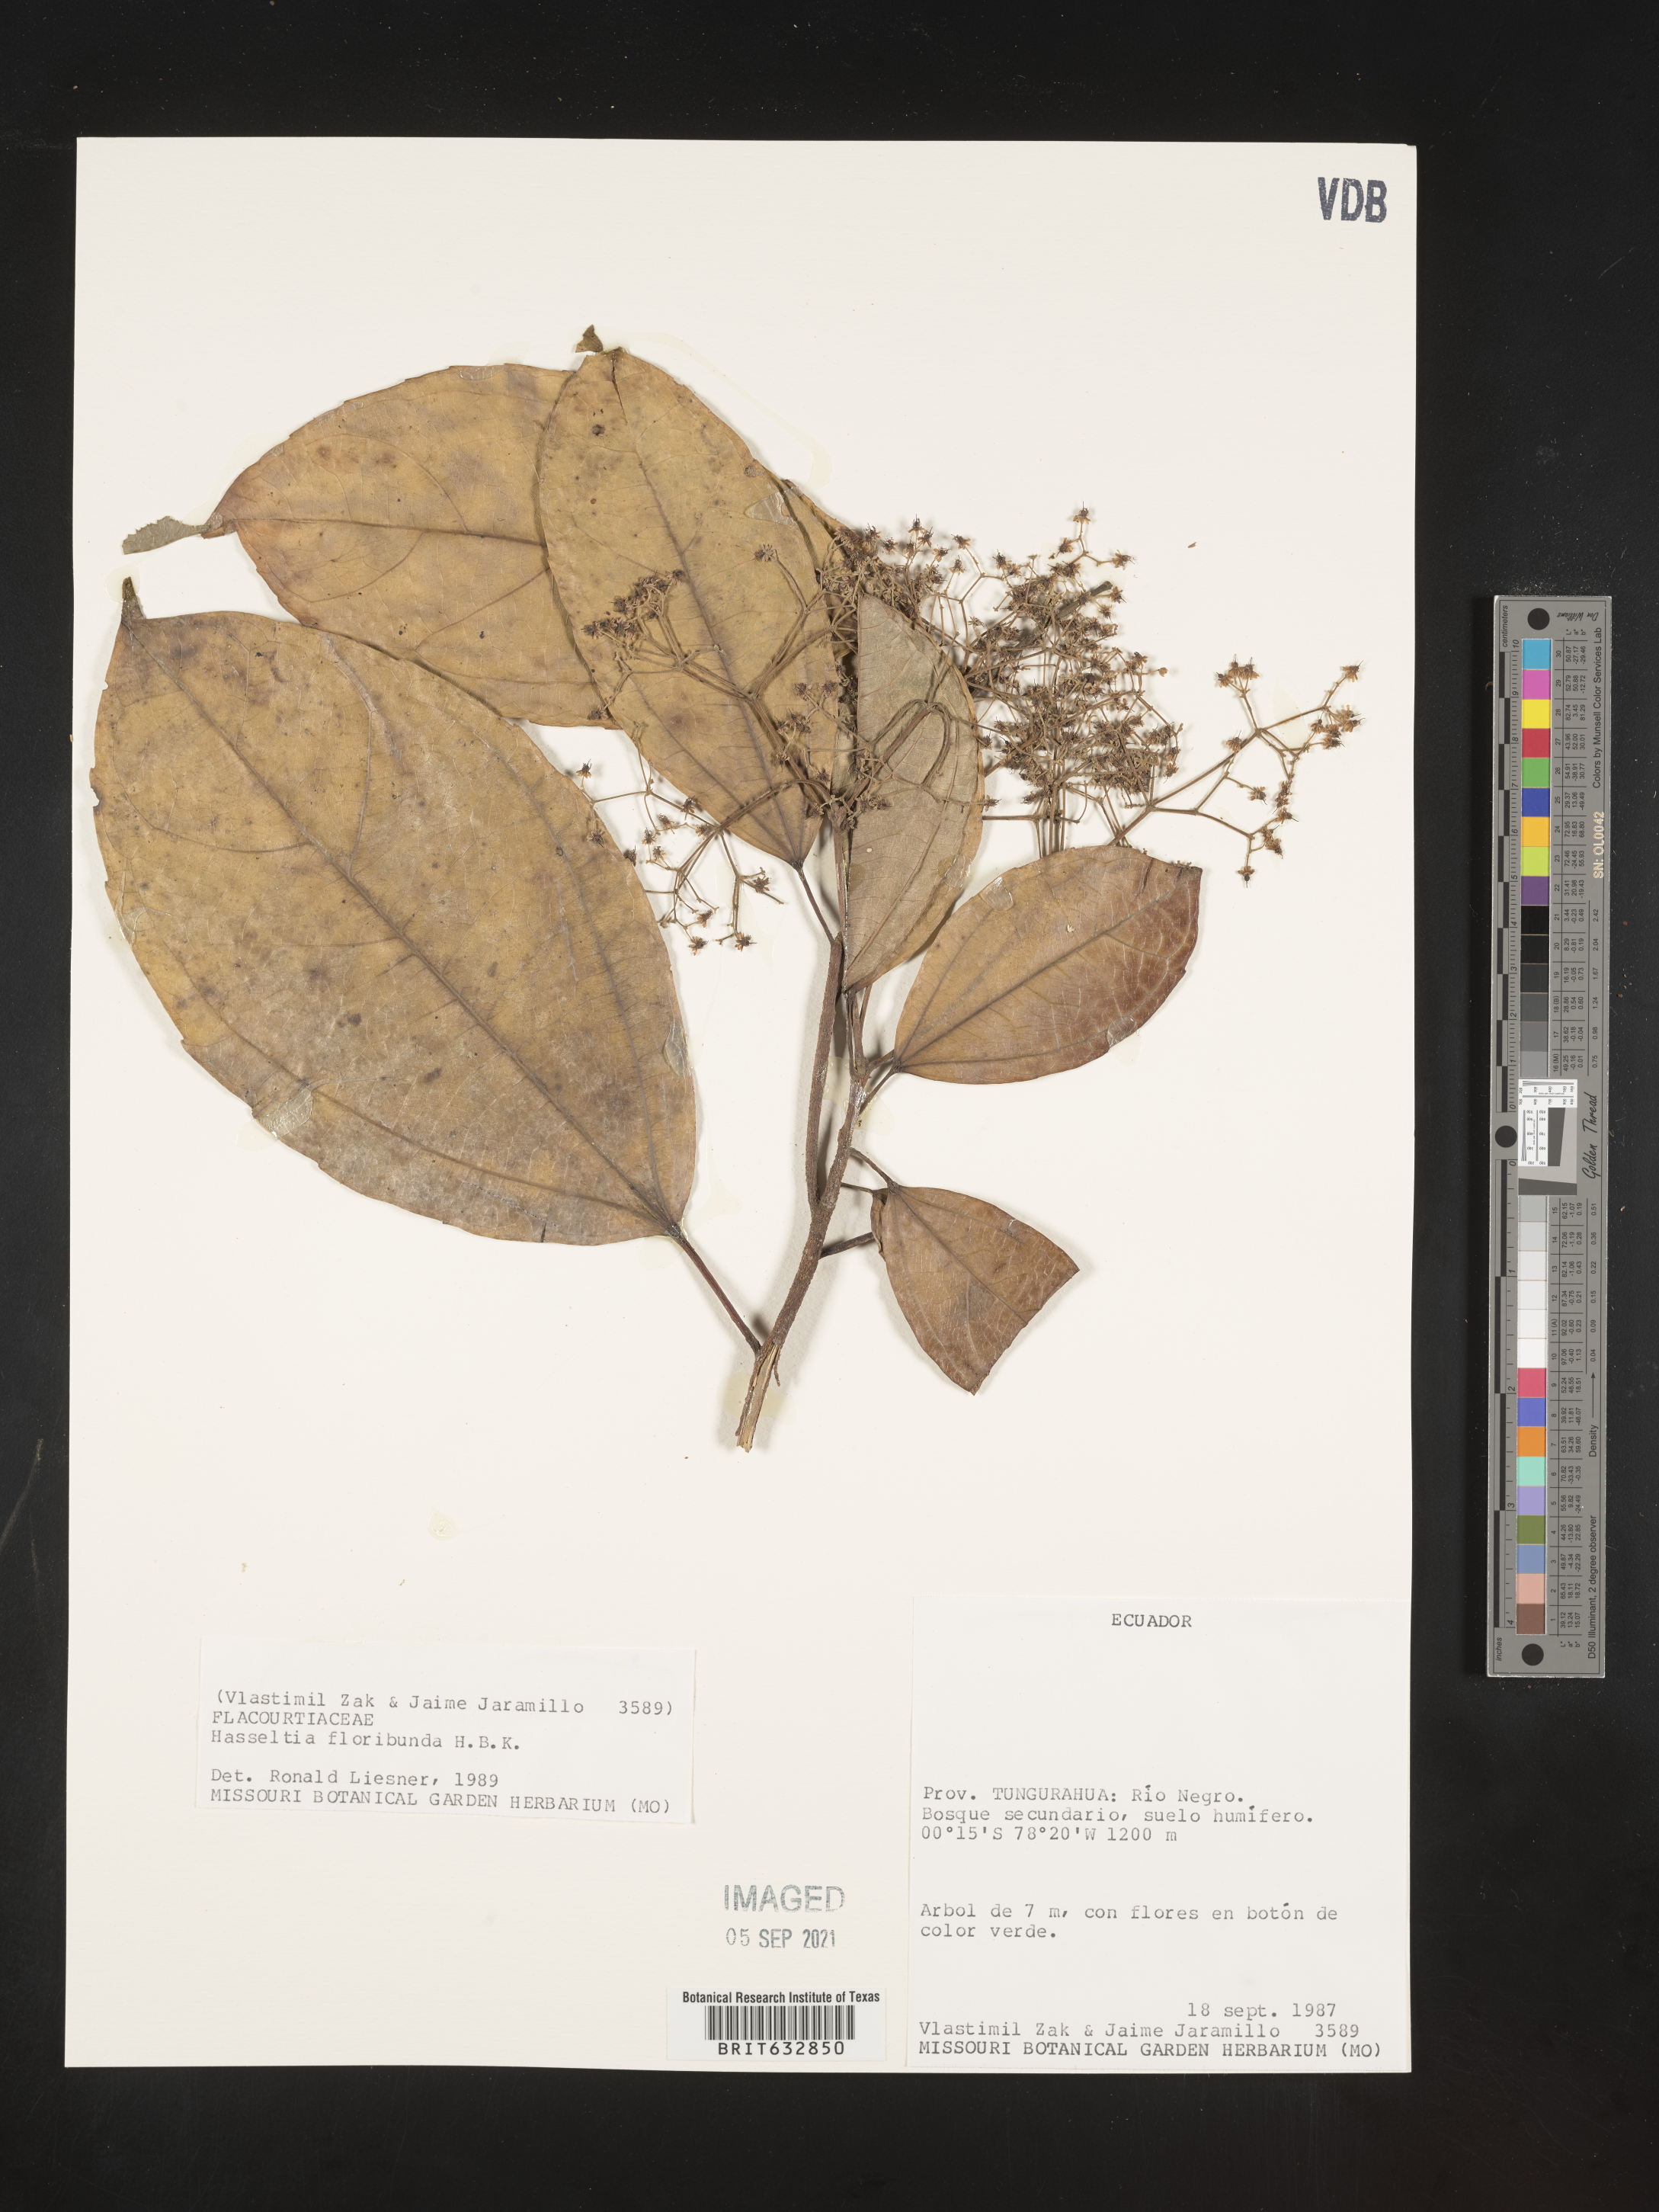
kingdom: Plantae
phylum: Tracheophyta
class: Magnoliopsida
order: Malpighiales
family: Salicaceae
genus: Hasseltia
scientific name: Hasseltia
